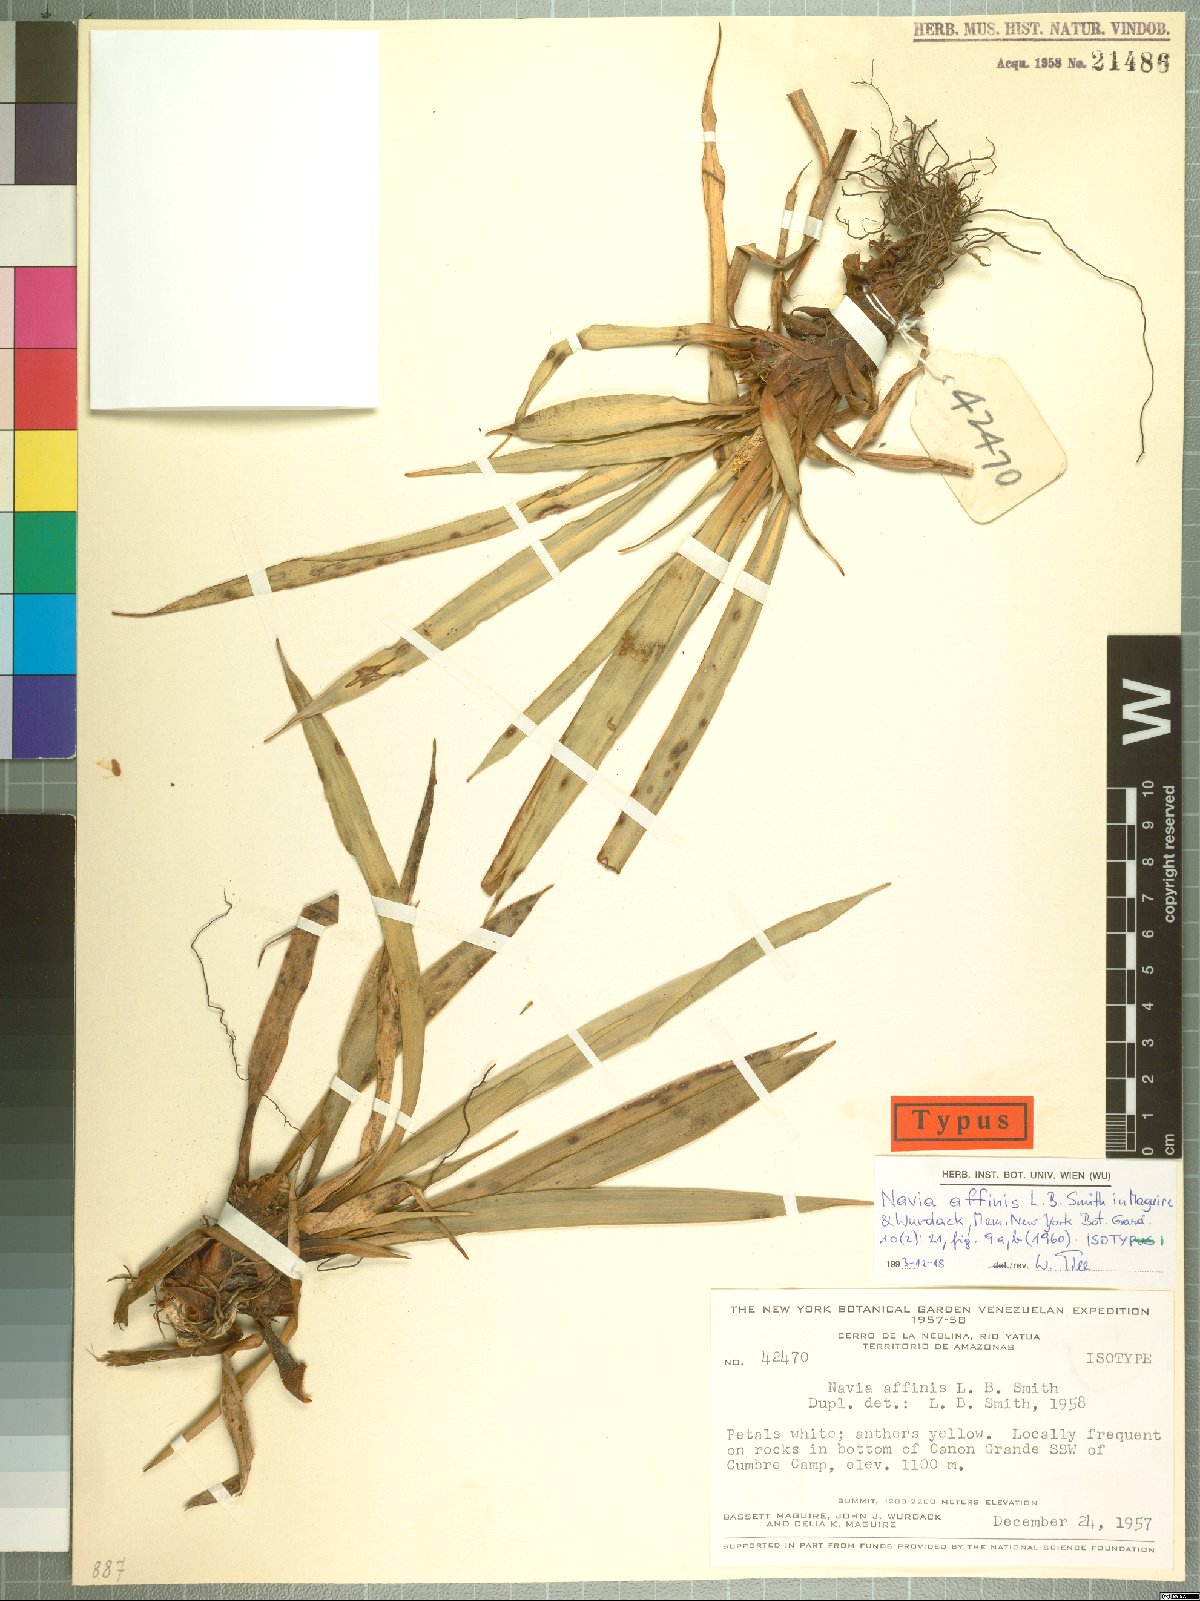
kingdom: Plantae
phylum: Tracheophyta
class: Liliopsida
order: Poales
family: Bromeliaceae
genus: Navia
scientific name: Navia affinis
